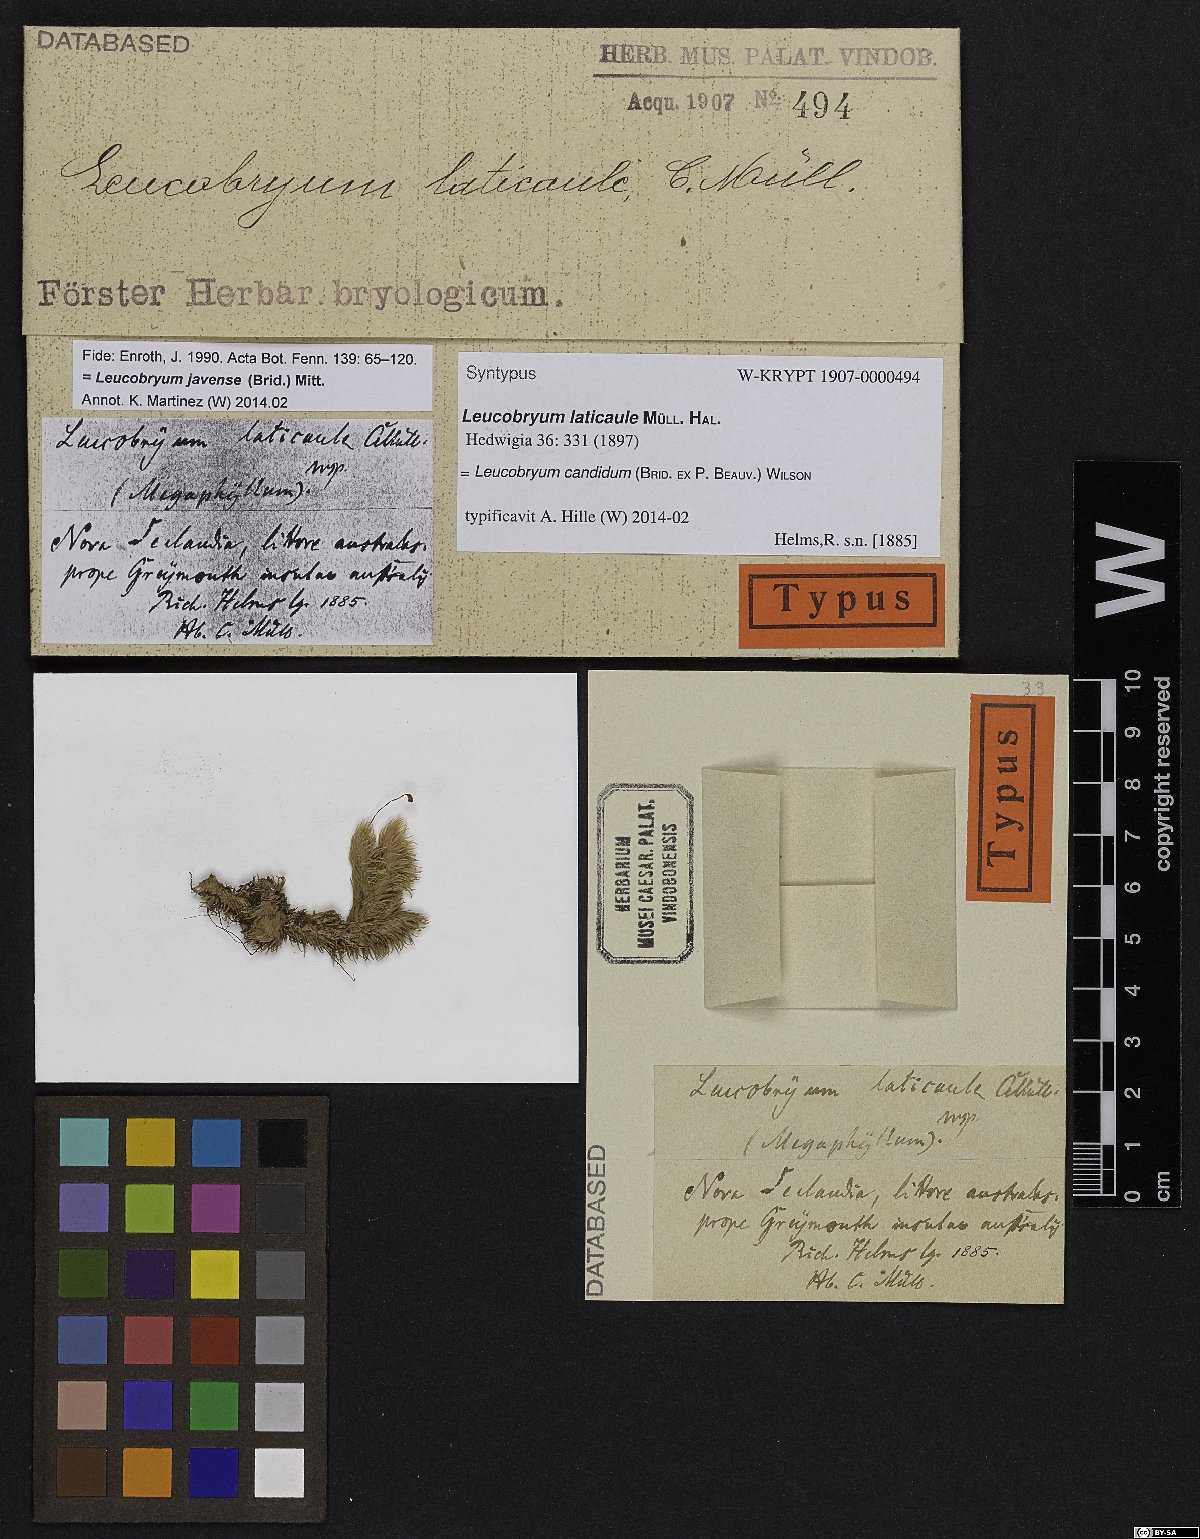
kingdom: Plantae
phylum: Bryophyta
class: Bryopsida
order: Dicranales
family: Leucobryaceae
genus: Leucobryum
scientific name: Leucobryum candidum
